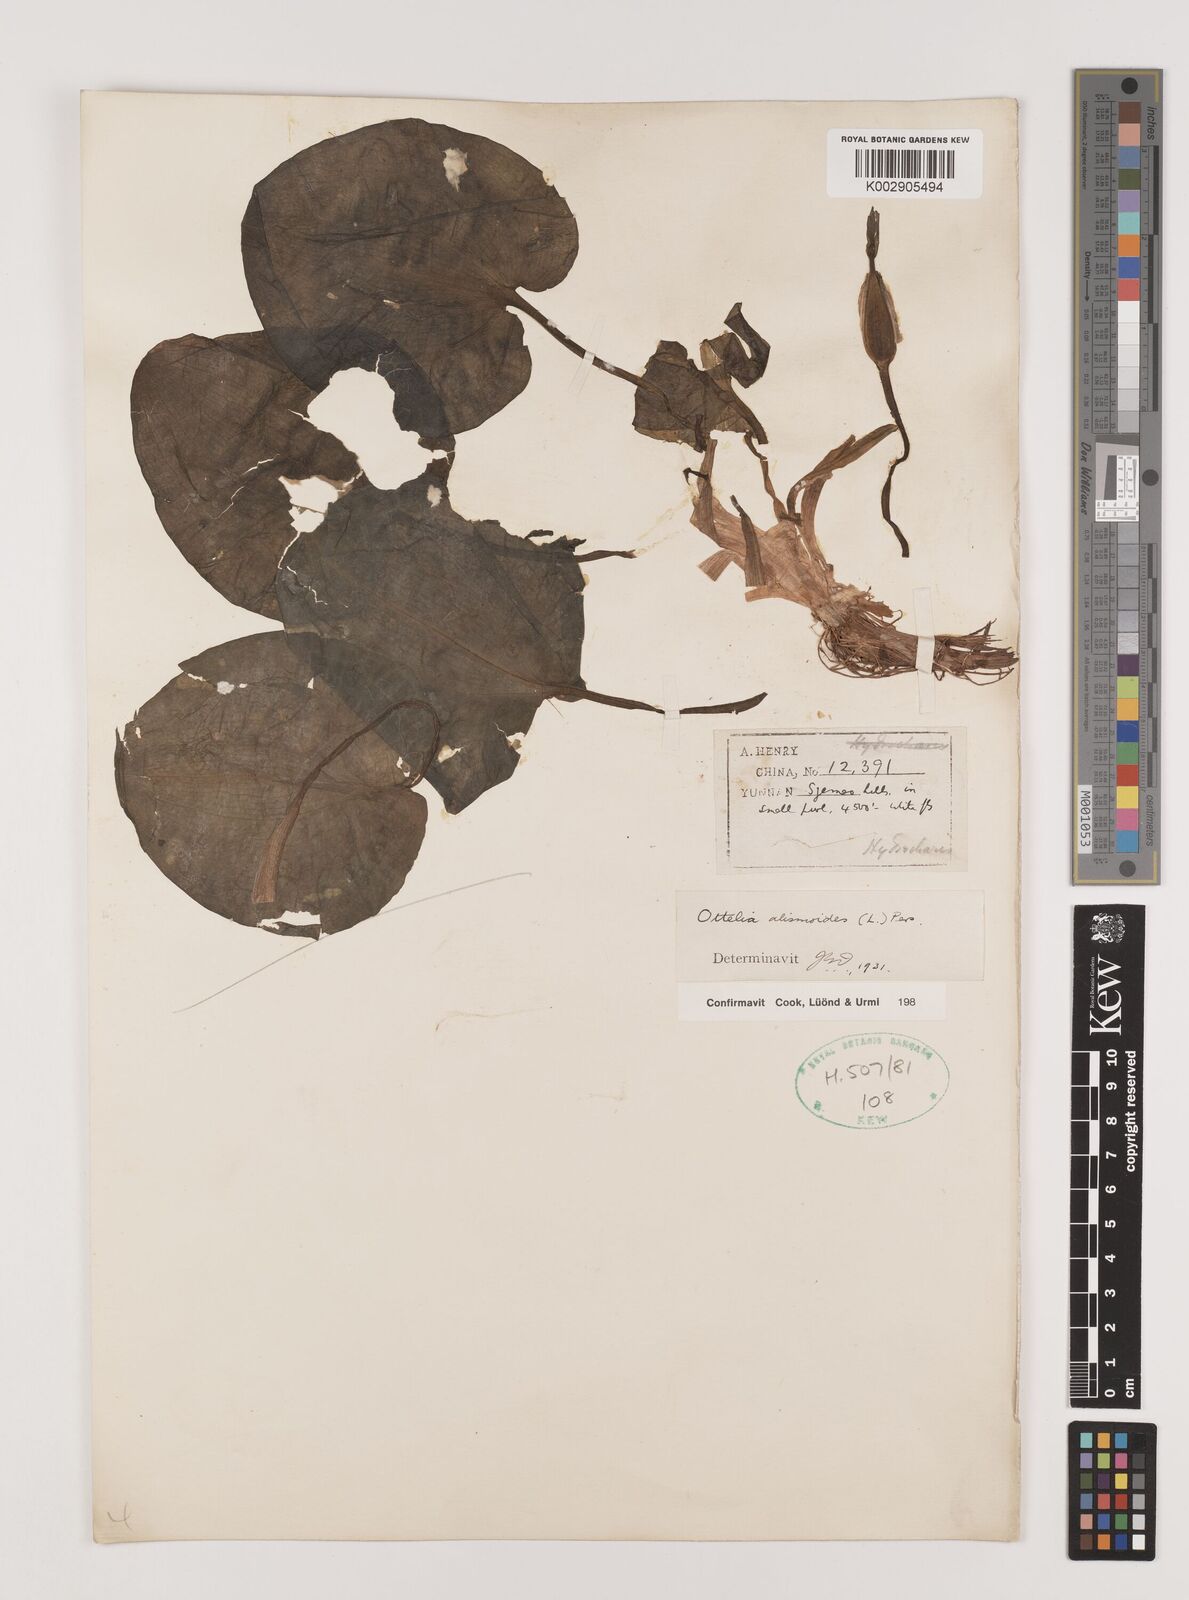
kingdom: Plantae
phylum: Tracheophyta
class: Liliopsida
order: Alismatales
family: Hydrocharitaceae
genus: Ottelia
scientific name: Ottelia alismoides
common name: Duck-lettuce
